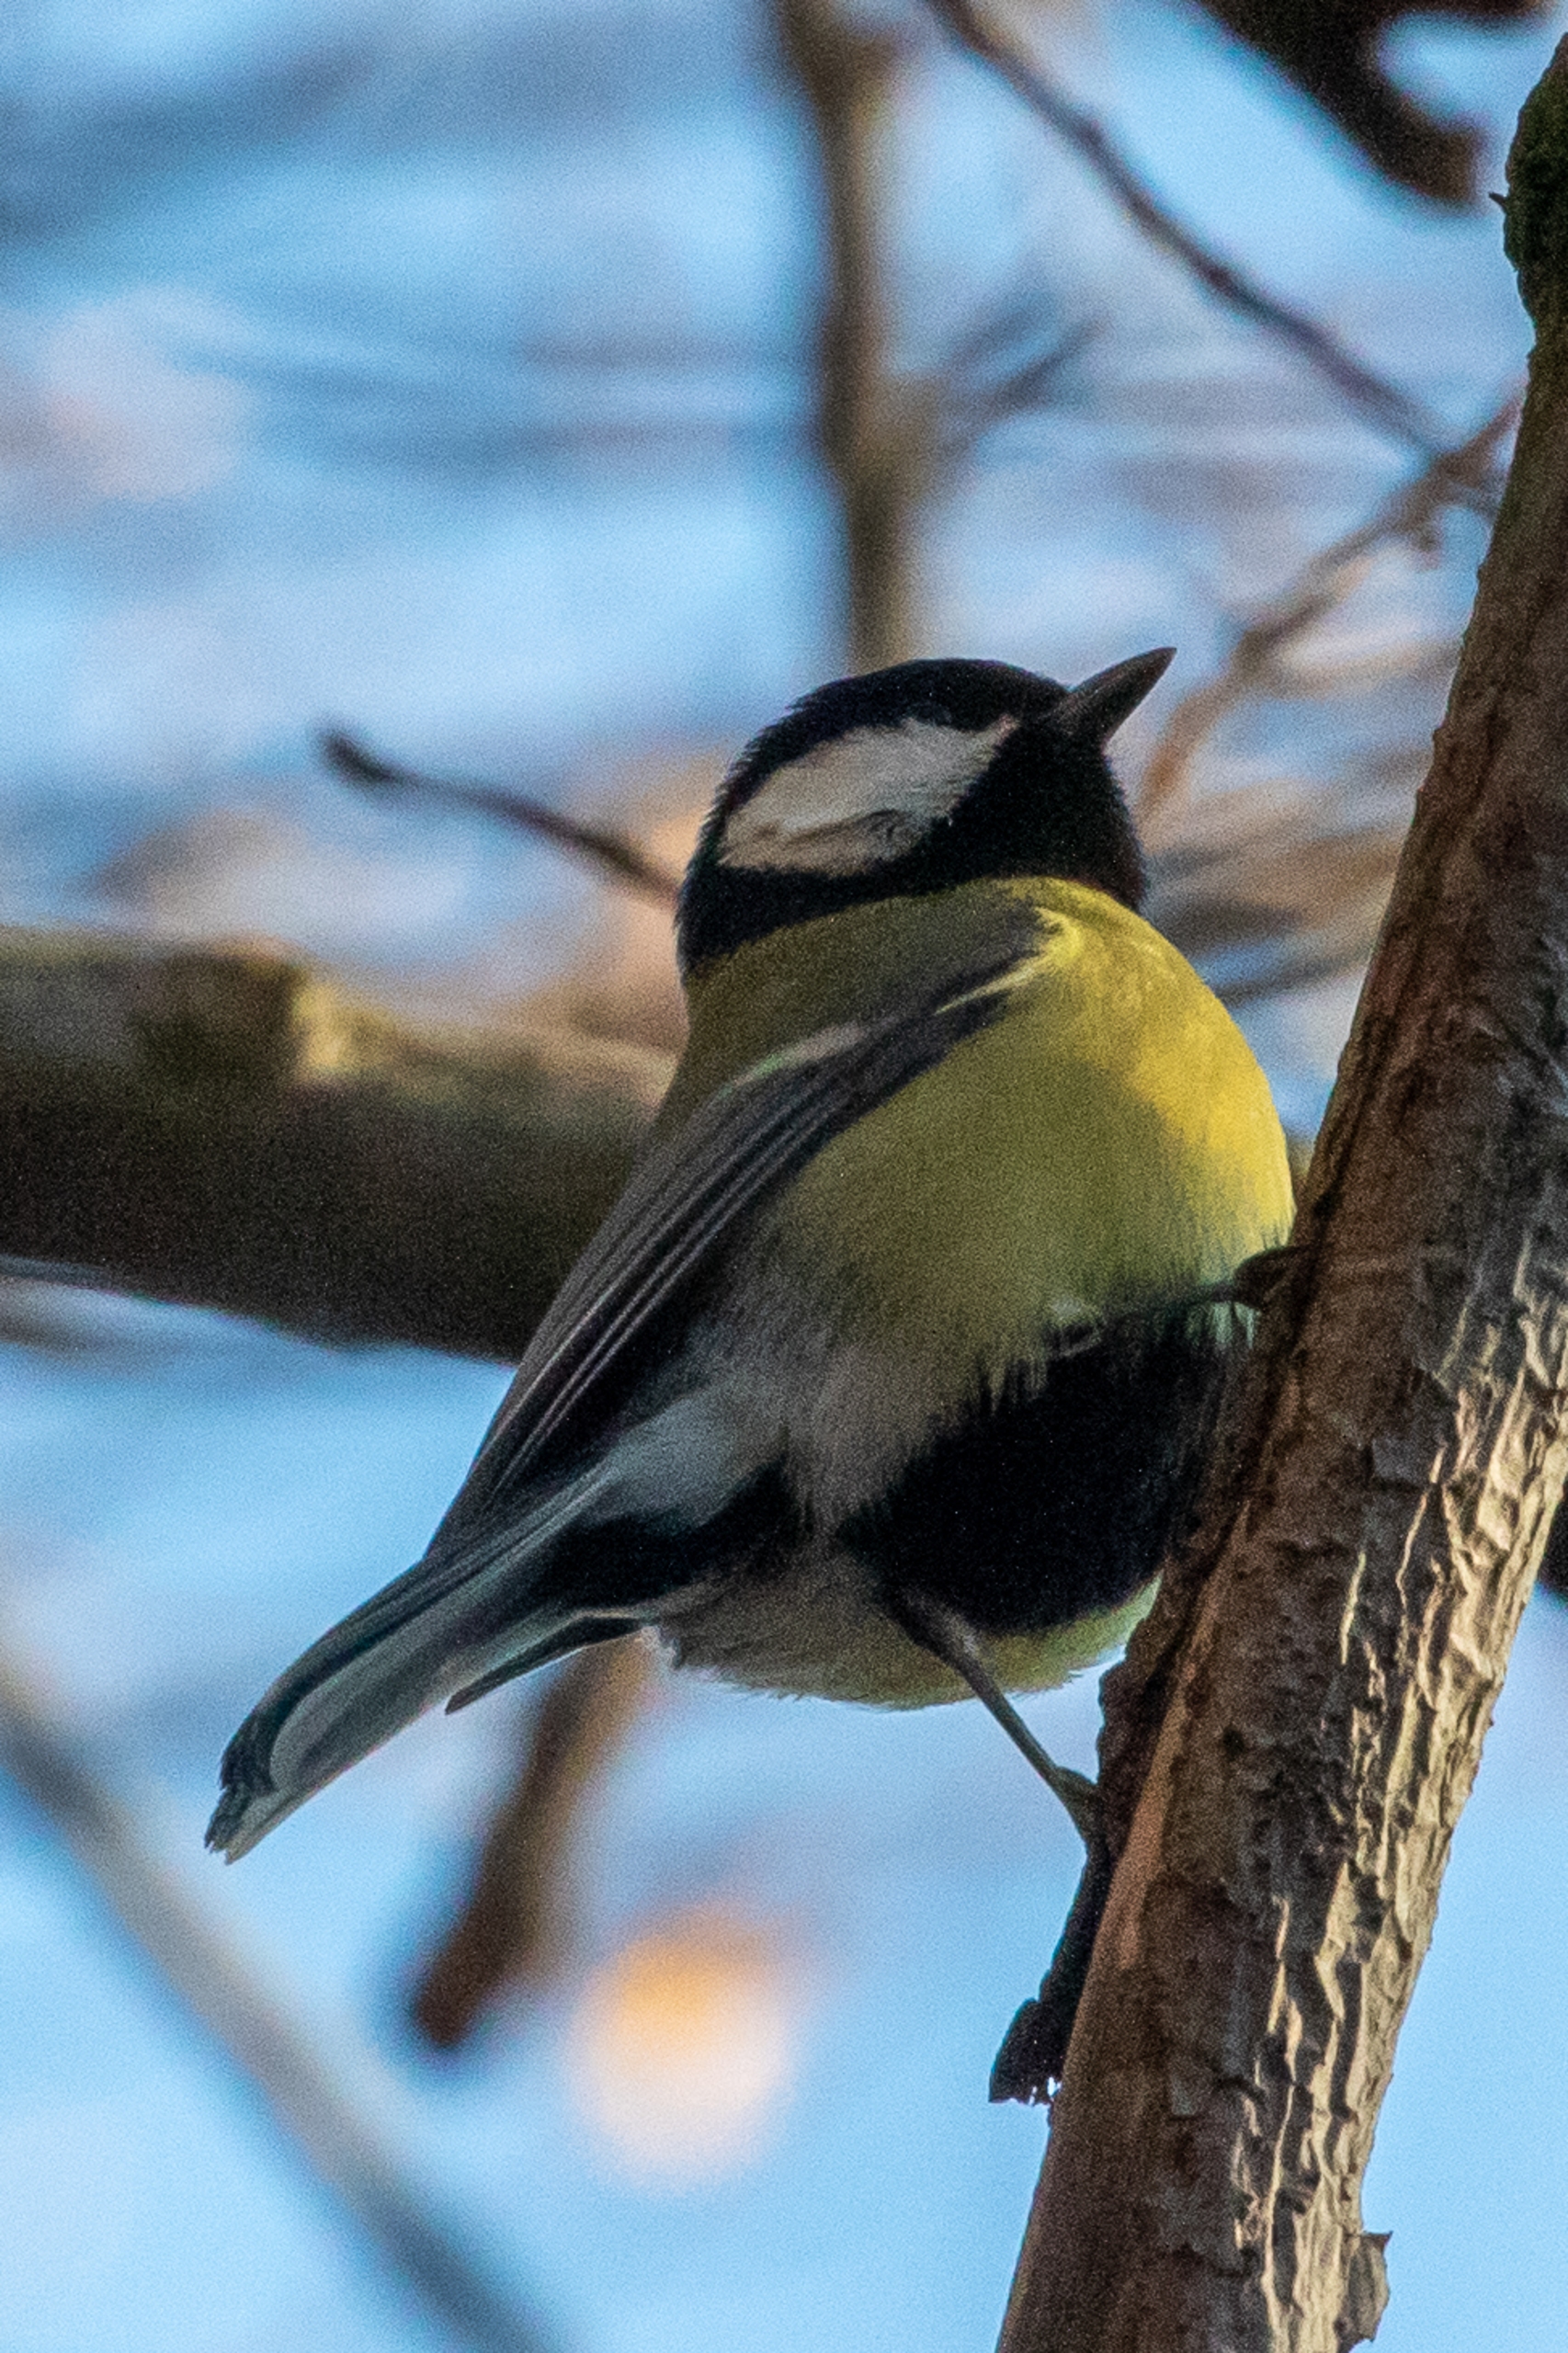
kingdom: Animalia
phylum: Chordata
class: Aves
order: Passeriformes
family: Paridae
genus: Parus
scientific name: Parus major
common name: Musvit
